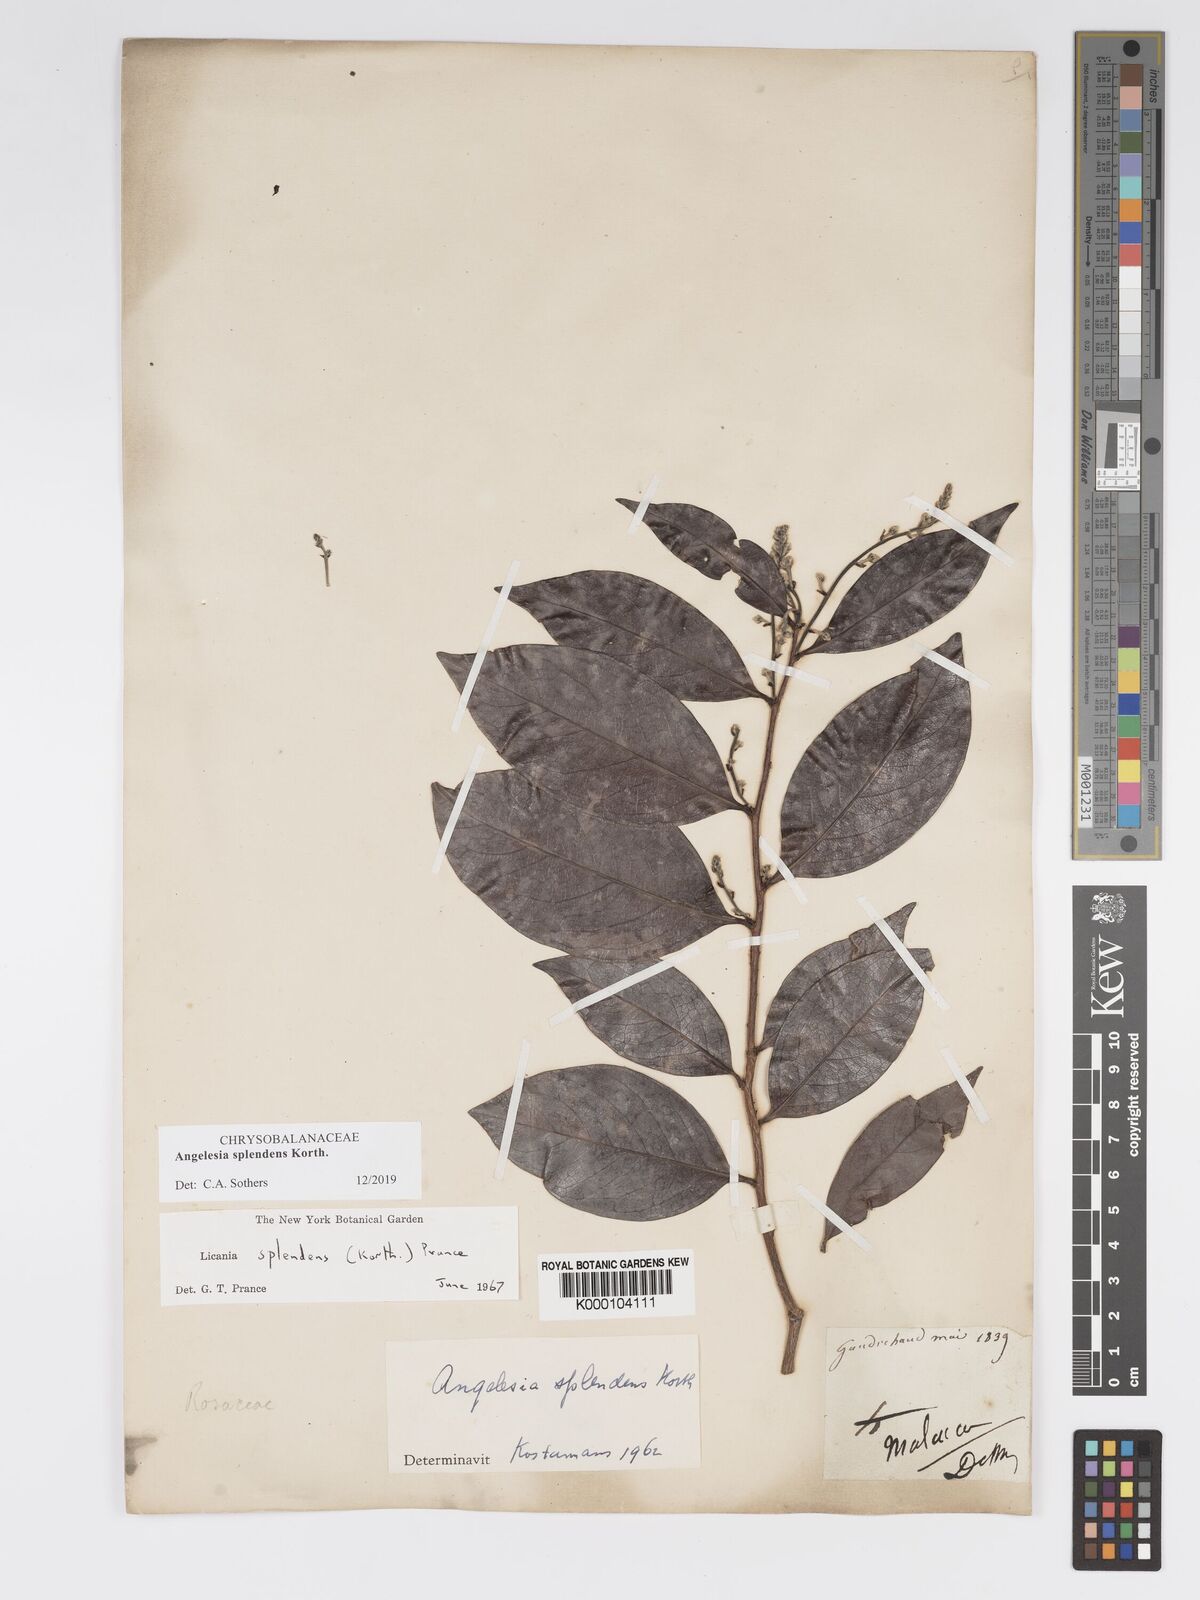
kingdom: Plantae
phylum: Tracheophyta
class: Magnoliopsida
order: Malpighiales
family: Chrysobalanaceae
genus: Angelesia
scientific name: Angelesia splendens
